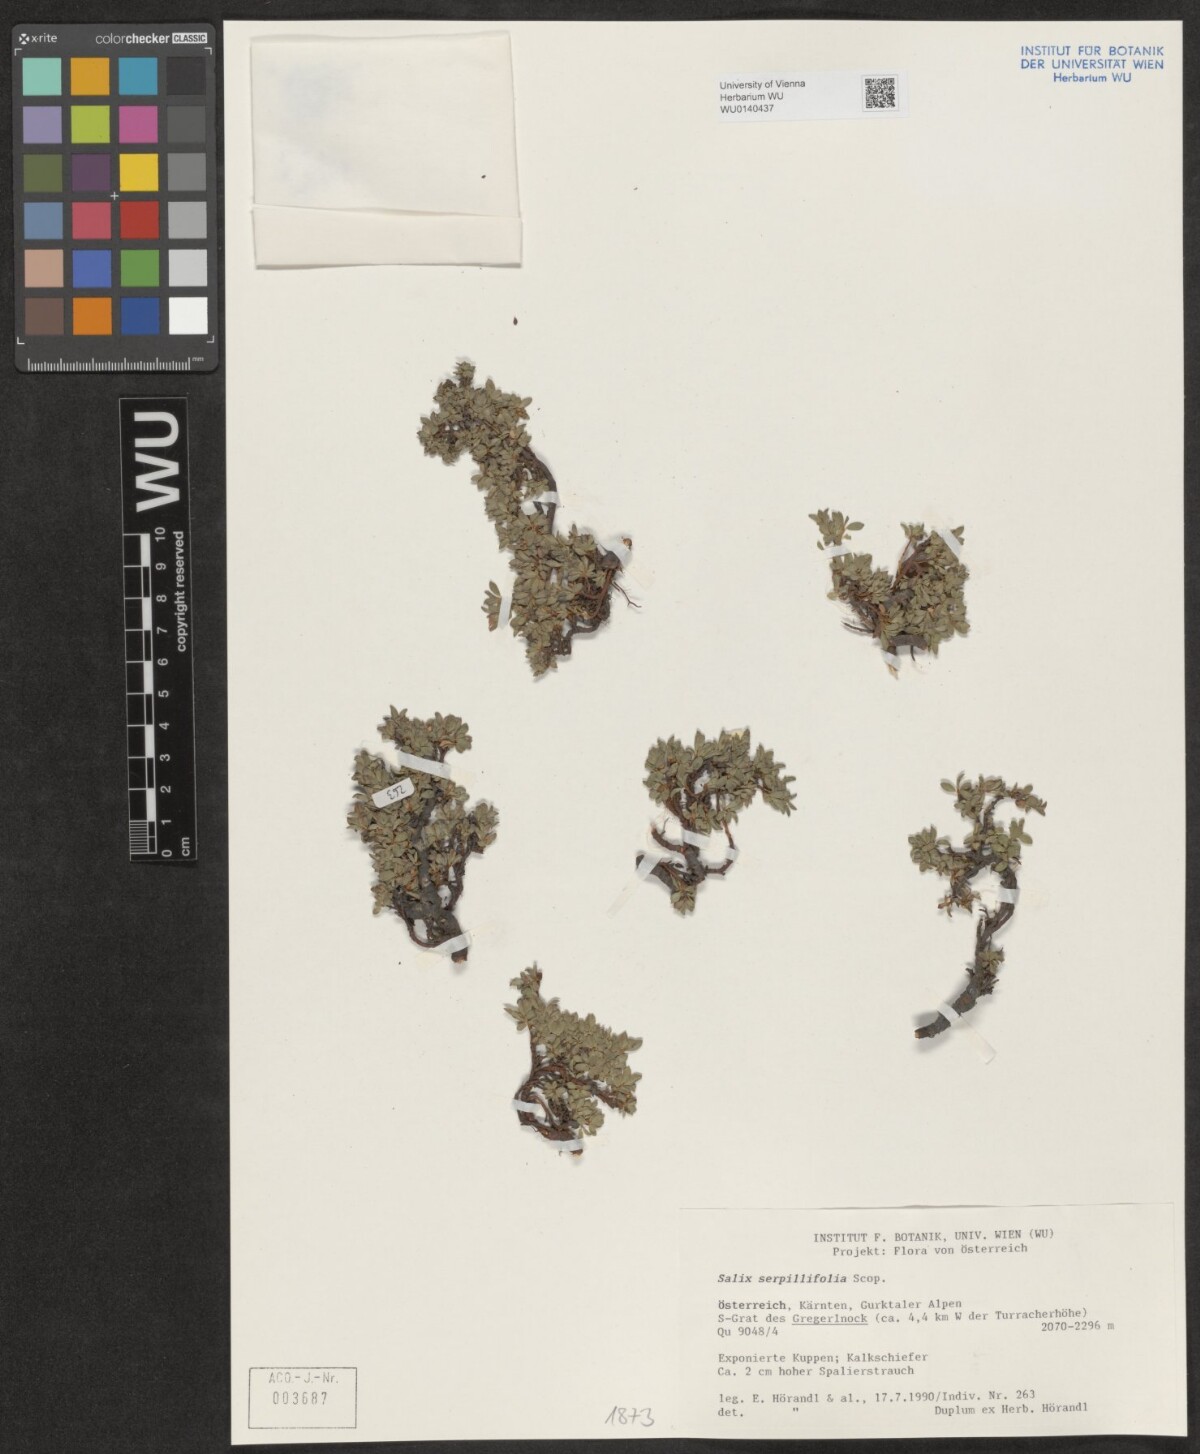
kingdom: Plantae
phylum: Tracheophyta
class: Magnoliopsida
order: Malpighiales
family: Salicaceae
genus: Salix
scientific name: Salix serpillifolia
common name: Thyme-leaf willow
